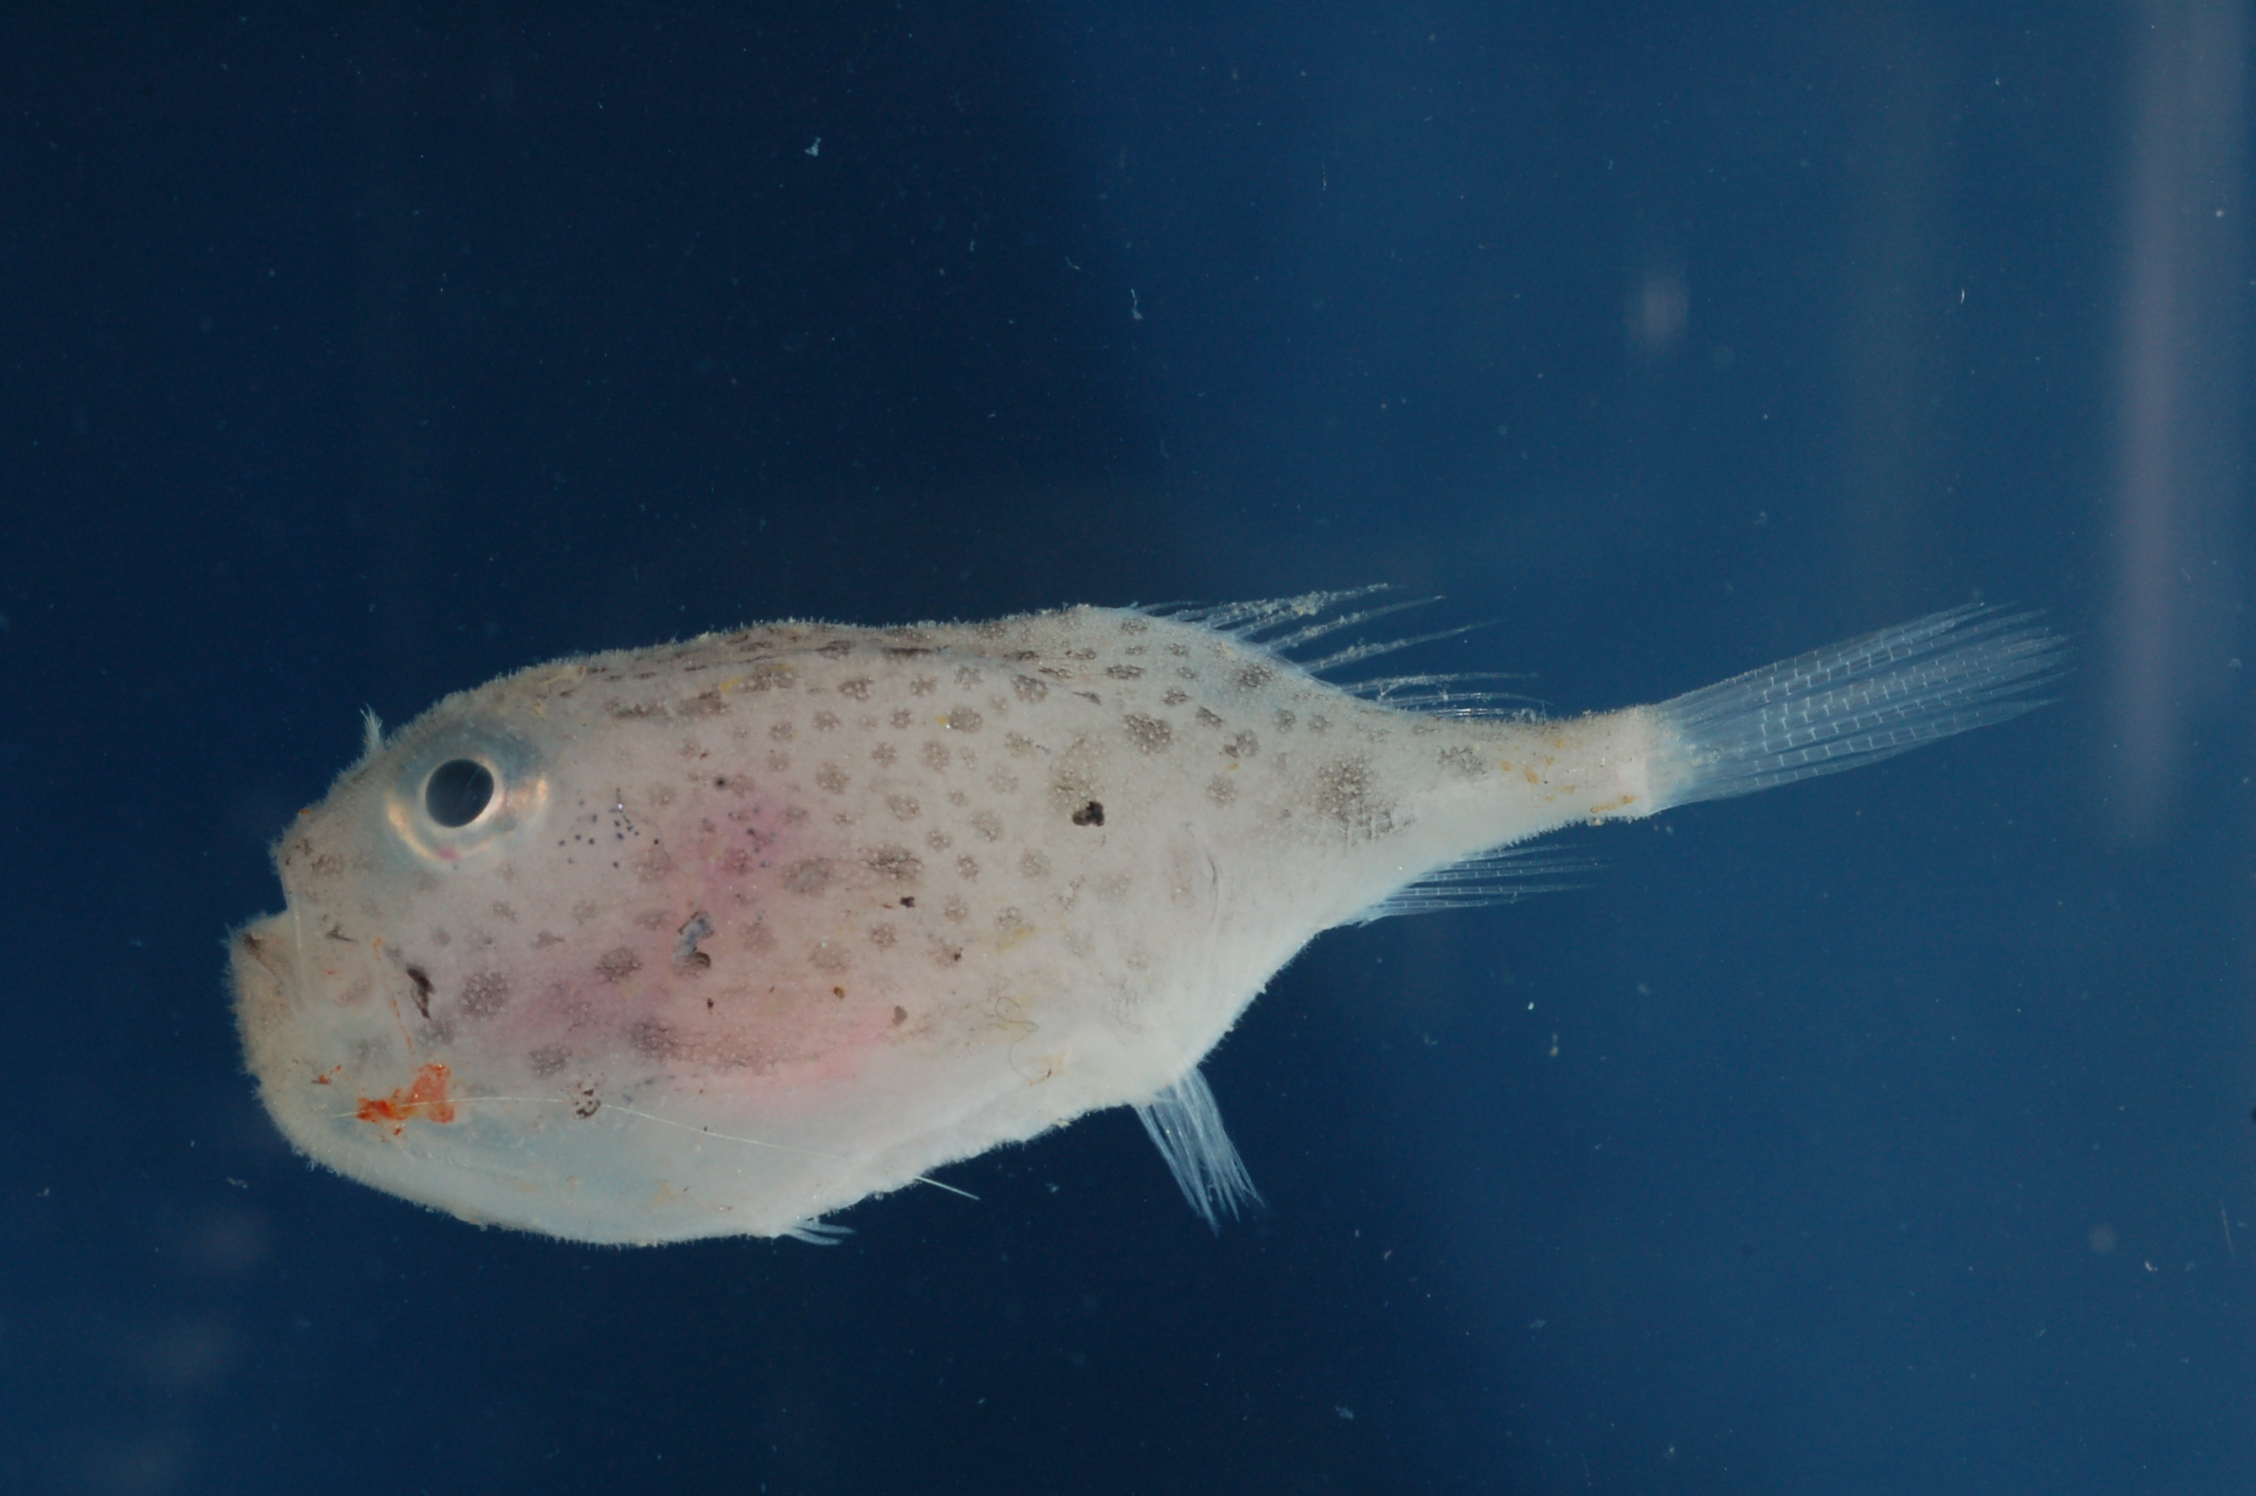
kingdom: Animalia
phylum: Chordata
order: Lophiiformes
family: Chaunacidae
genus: Chaunax
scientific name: Chaunax fimbriatus
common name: Tassled coffinfish
